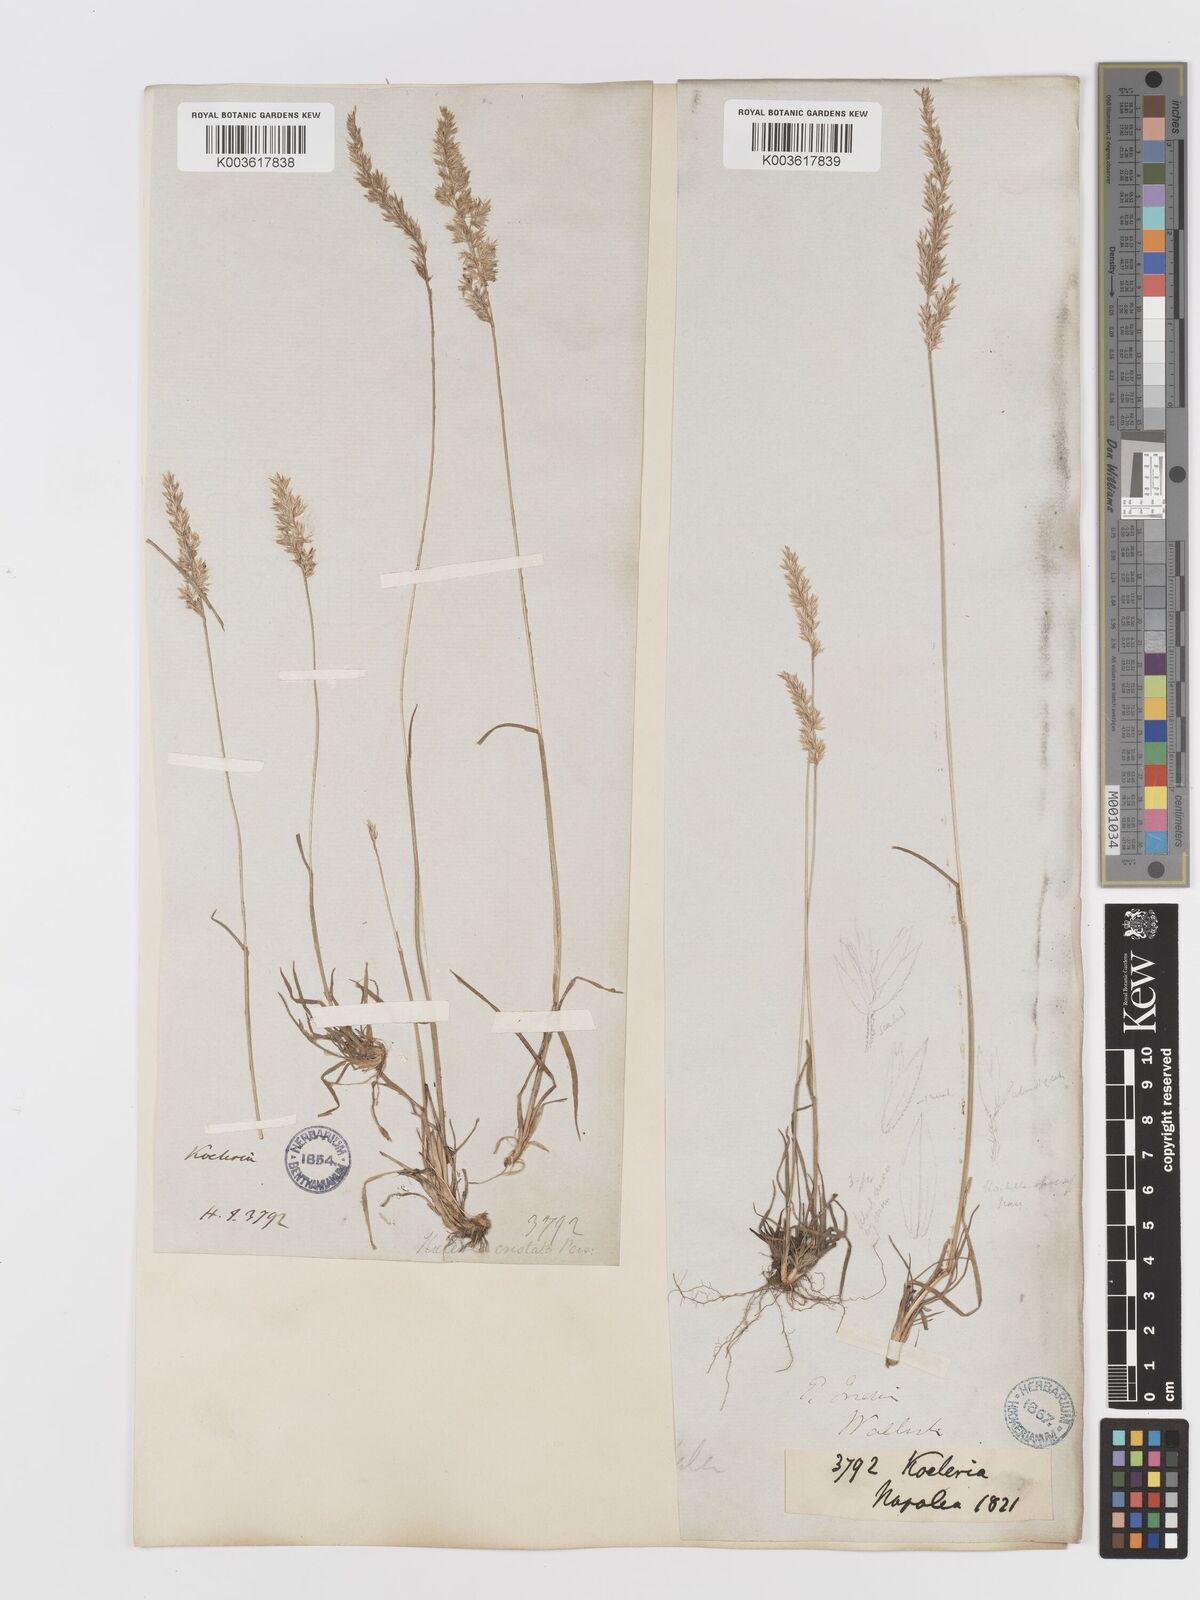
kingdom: Plantae
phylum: Tracheophyta
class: Liliopsida
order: Poales
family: Poaceae
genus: Koeleria
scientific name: Koeleria macrantha
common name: Crested hair-grass
